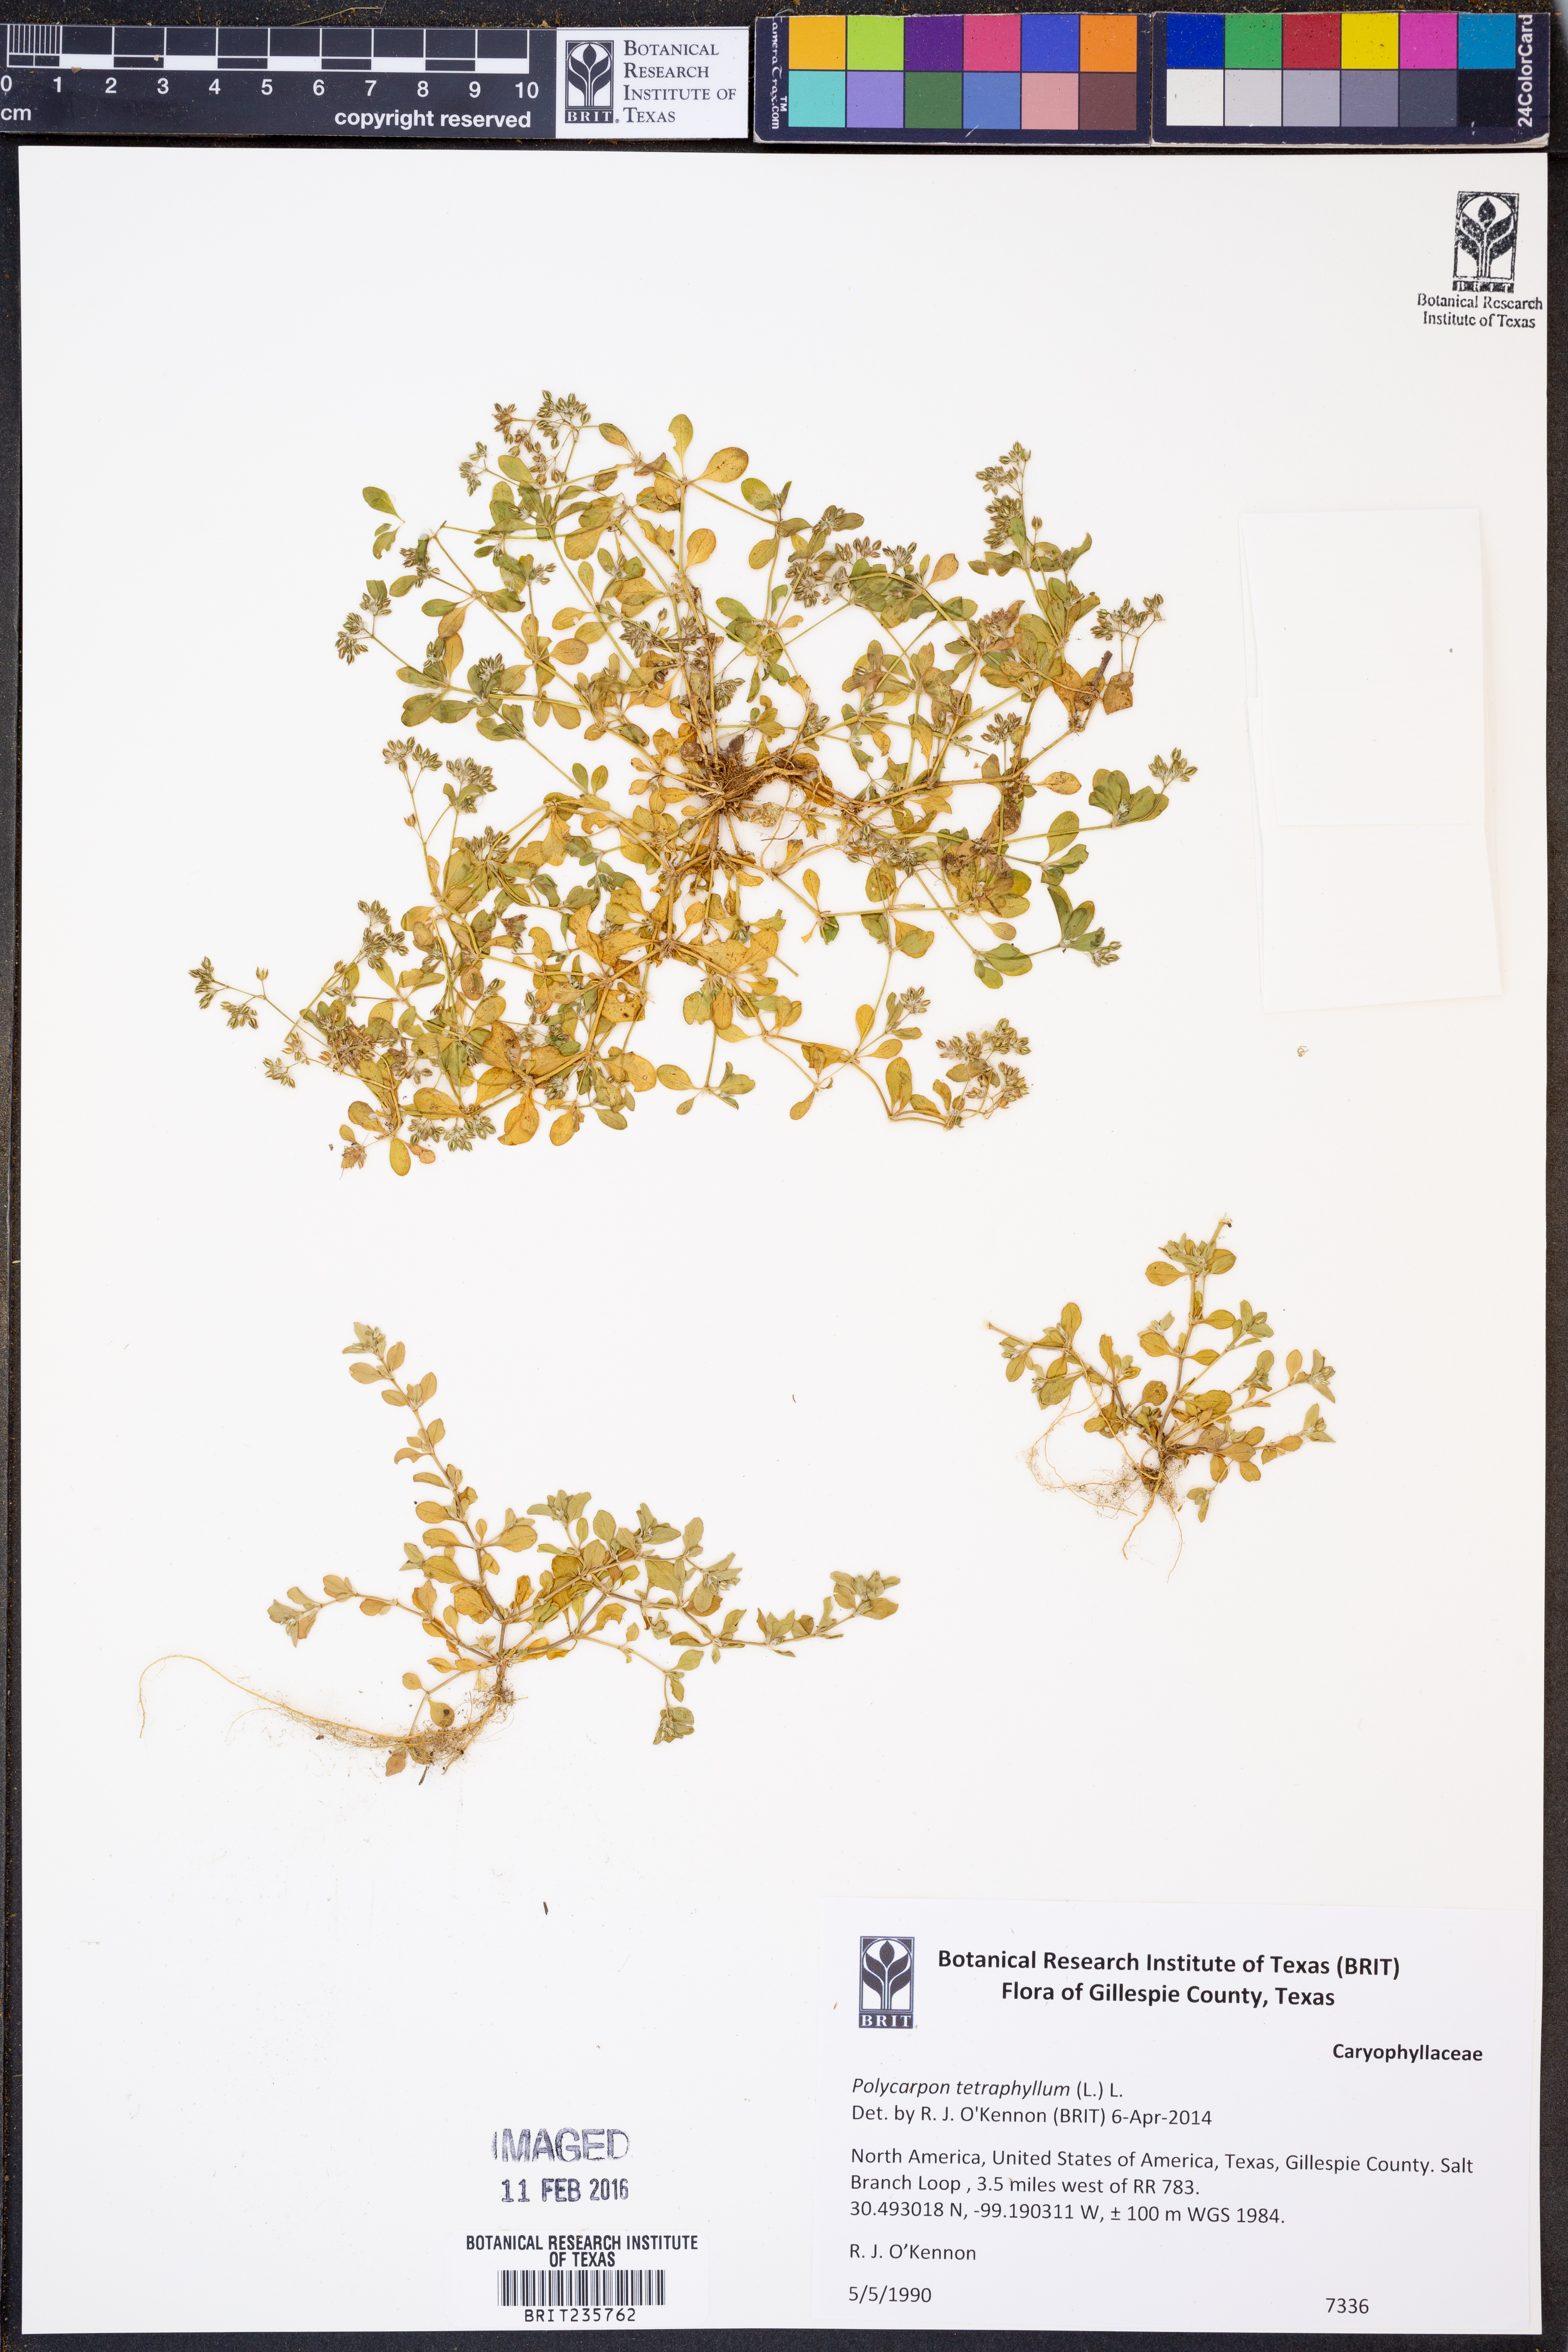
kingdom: Plantae
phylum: Tracheophyta
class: Magnoliopsida
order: Caryophyllales
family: Caryophyllaceae
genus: Polycarpon
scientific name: Polycarpon tetraphyllum
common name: Four-leaved all-seed
